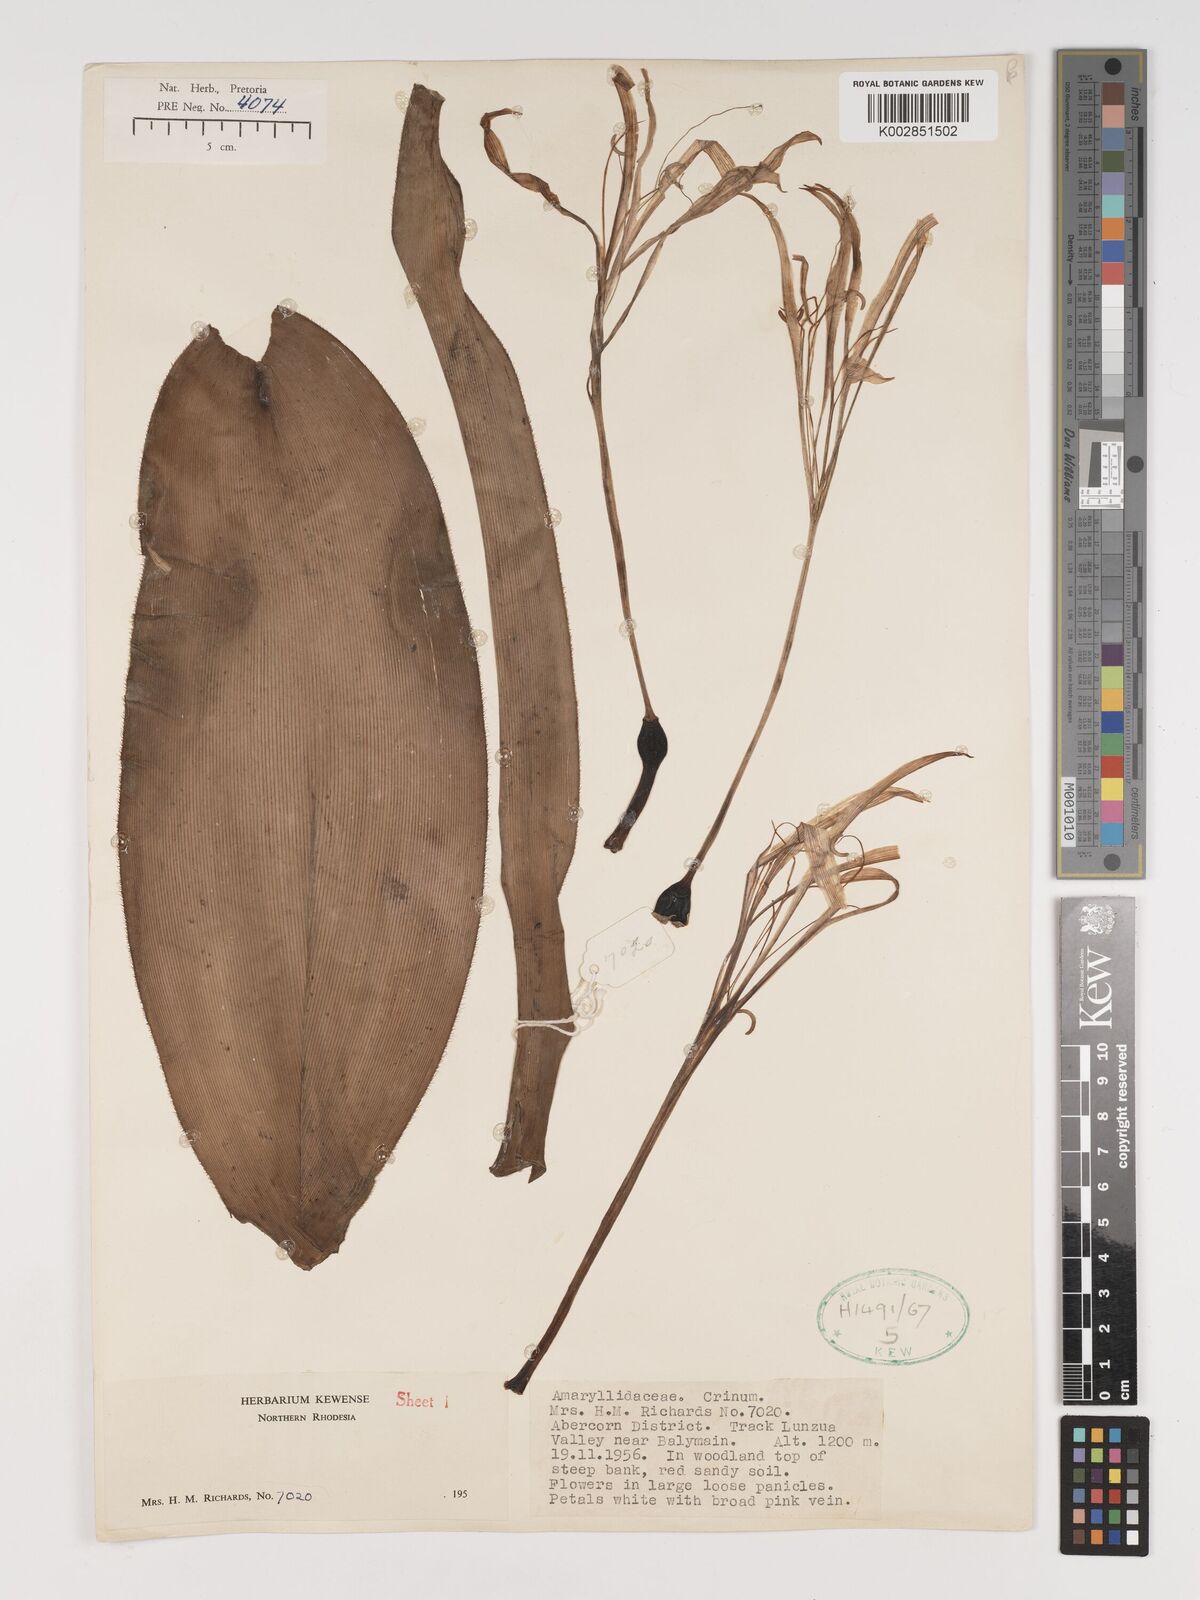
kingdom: Plantae
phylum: Tracheophyta
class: Liliopsida
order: Asparagales
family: Amaryllidaceae
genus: Crinum
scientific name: Crinum stuhlmannii
